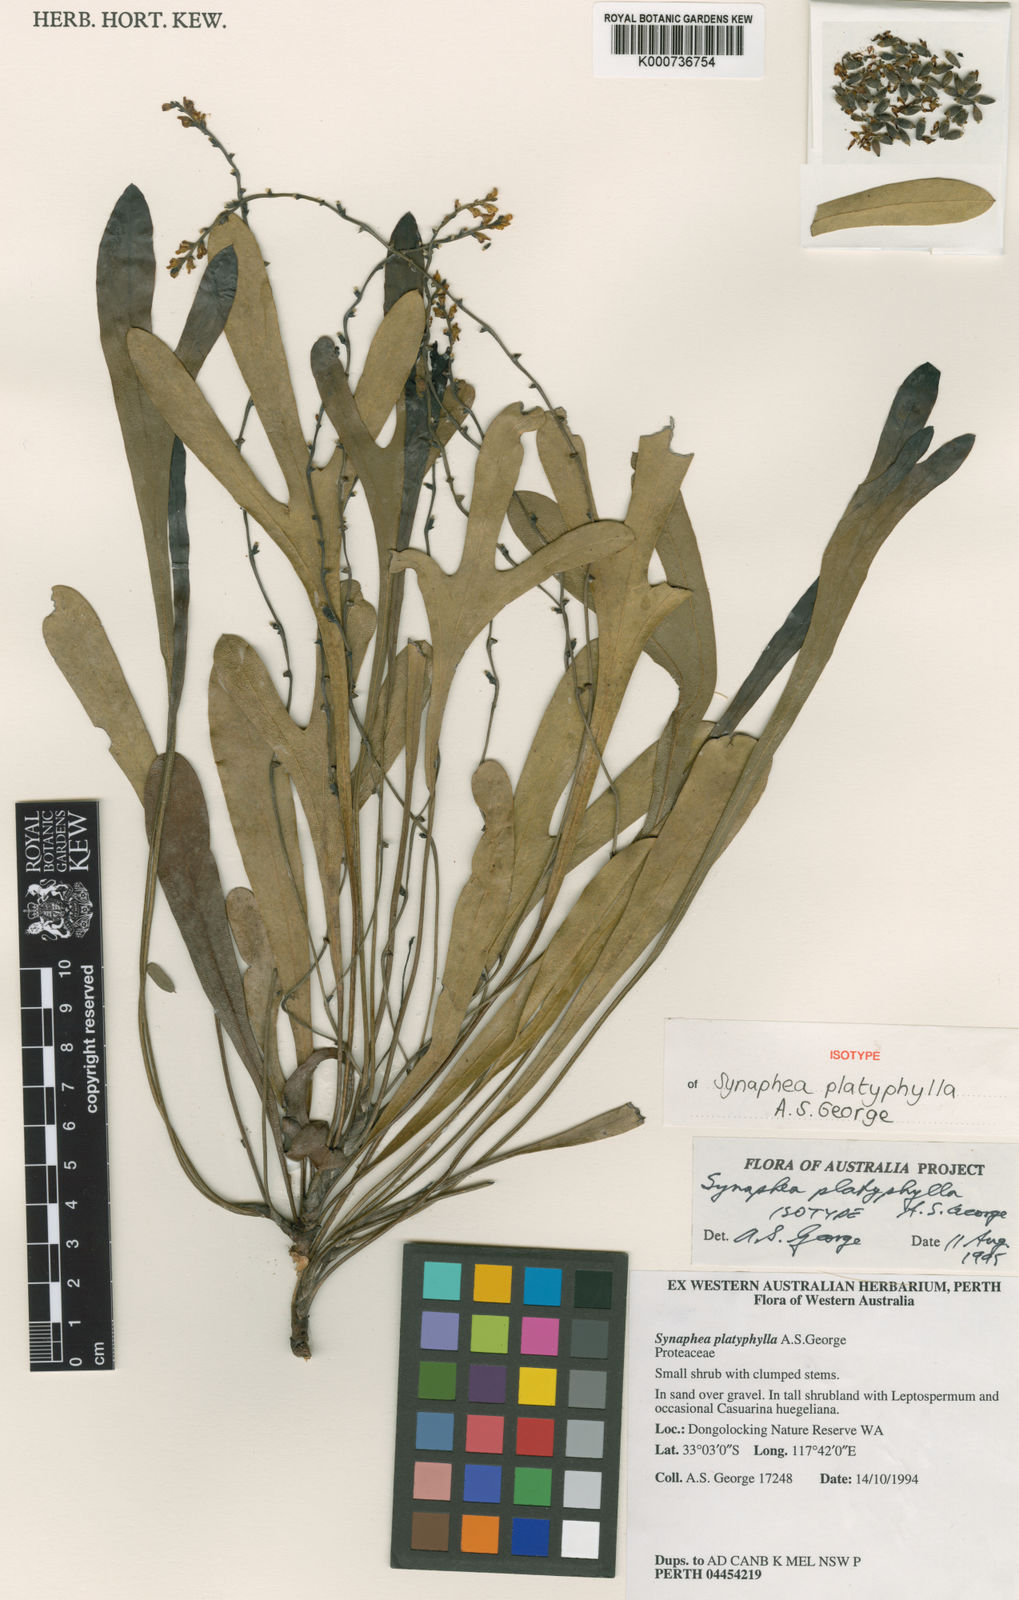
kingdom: Plantae
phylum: Tracheophyta
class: Magnoliopsida
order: Proteales
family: Proteaceae
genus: Synaphea
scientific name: Synaphea platyphylla
